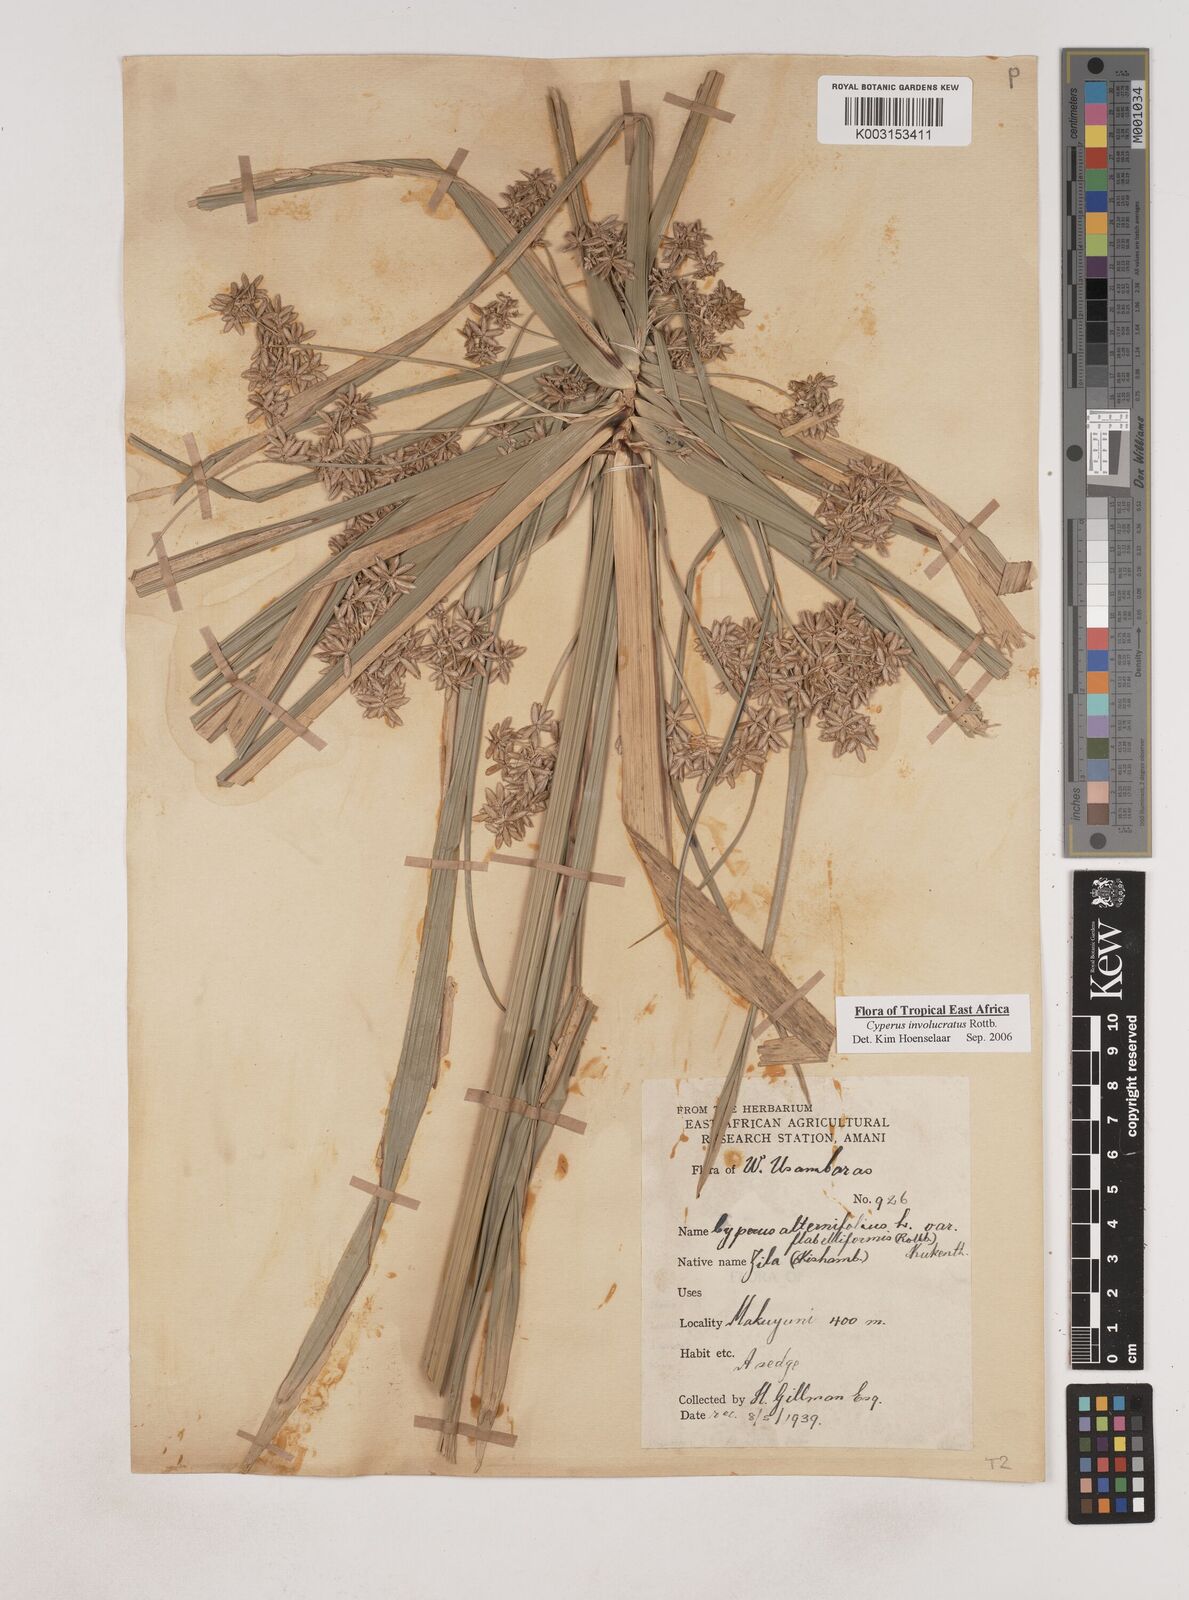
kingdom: Plantae
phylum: Tracheophyta
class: Liliopsida
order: Poales
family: Cyperaceae
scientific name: Cyperaceae
